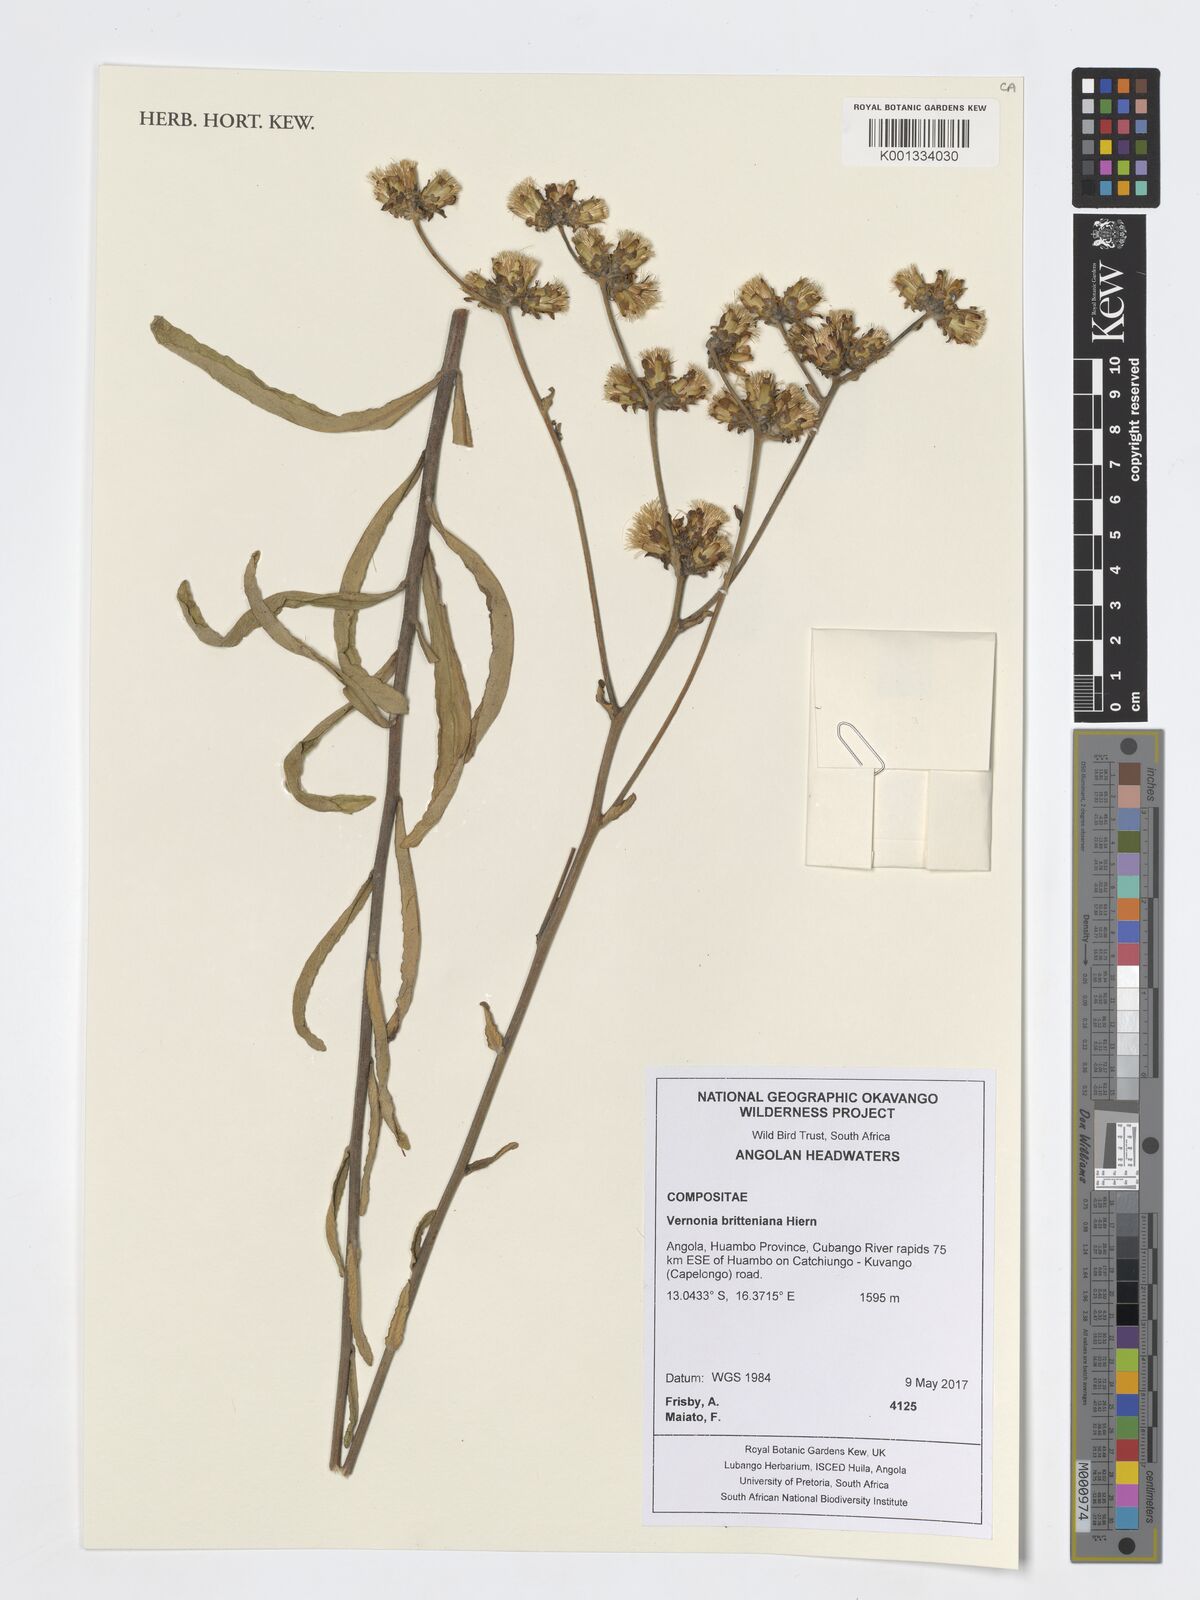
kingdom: Plantae
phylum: Tracheophyta
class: Magnoliopsida
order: Asterales
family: Asteraceae
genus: Vernonia
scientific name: Vernonia britteniana
